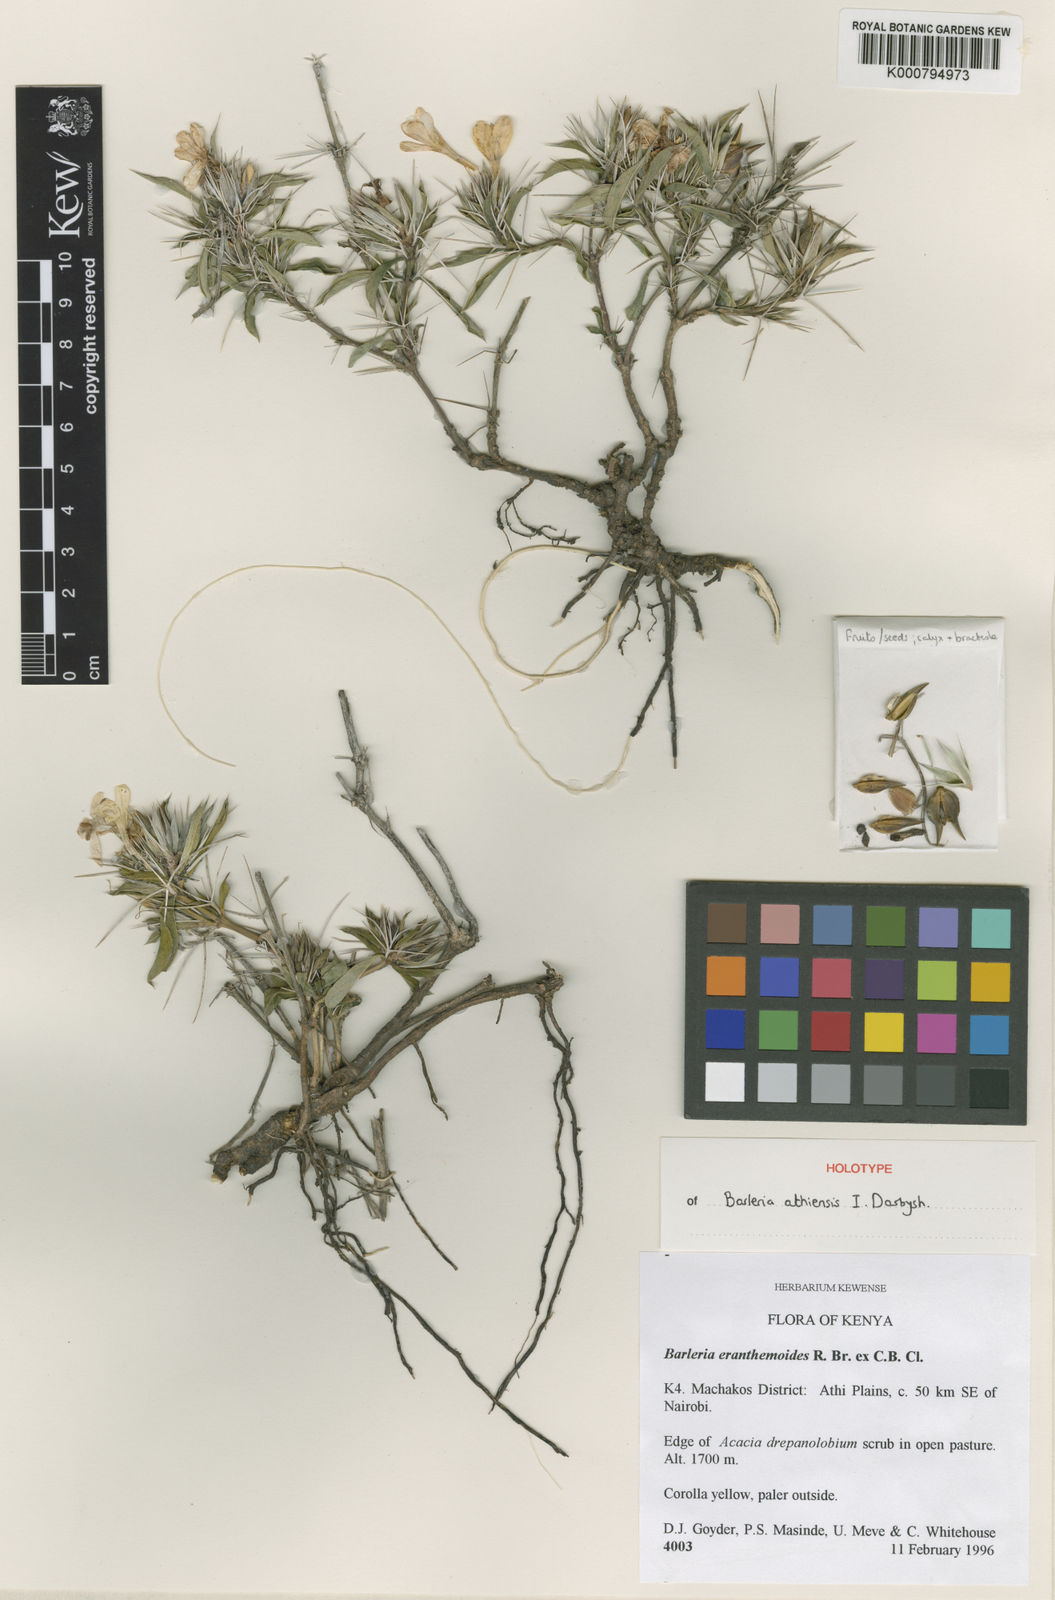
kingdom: Plantae
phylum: Tracheophyta
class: Magnoliopsida
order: Lamiales
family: Acanthaceae
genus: Barleria
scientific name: Barleria athiensis
